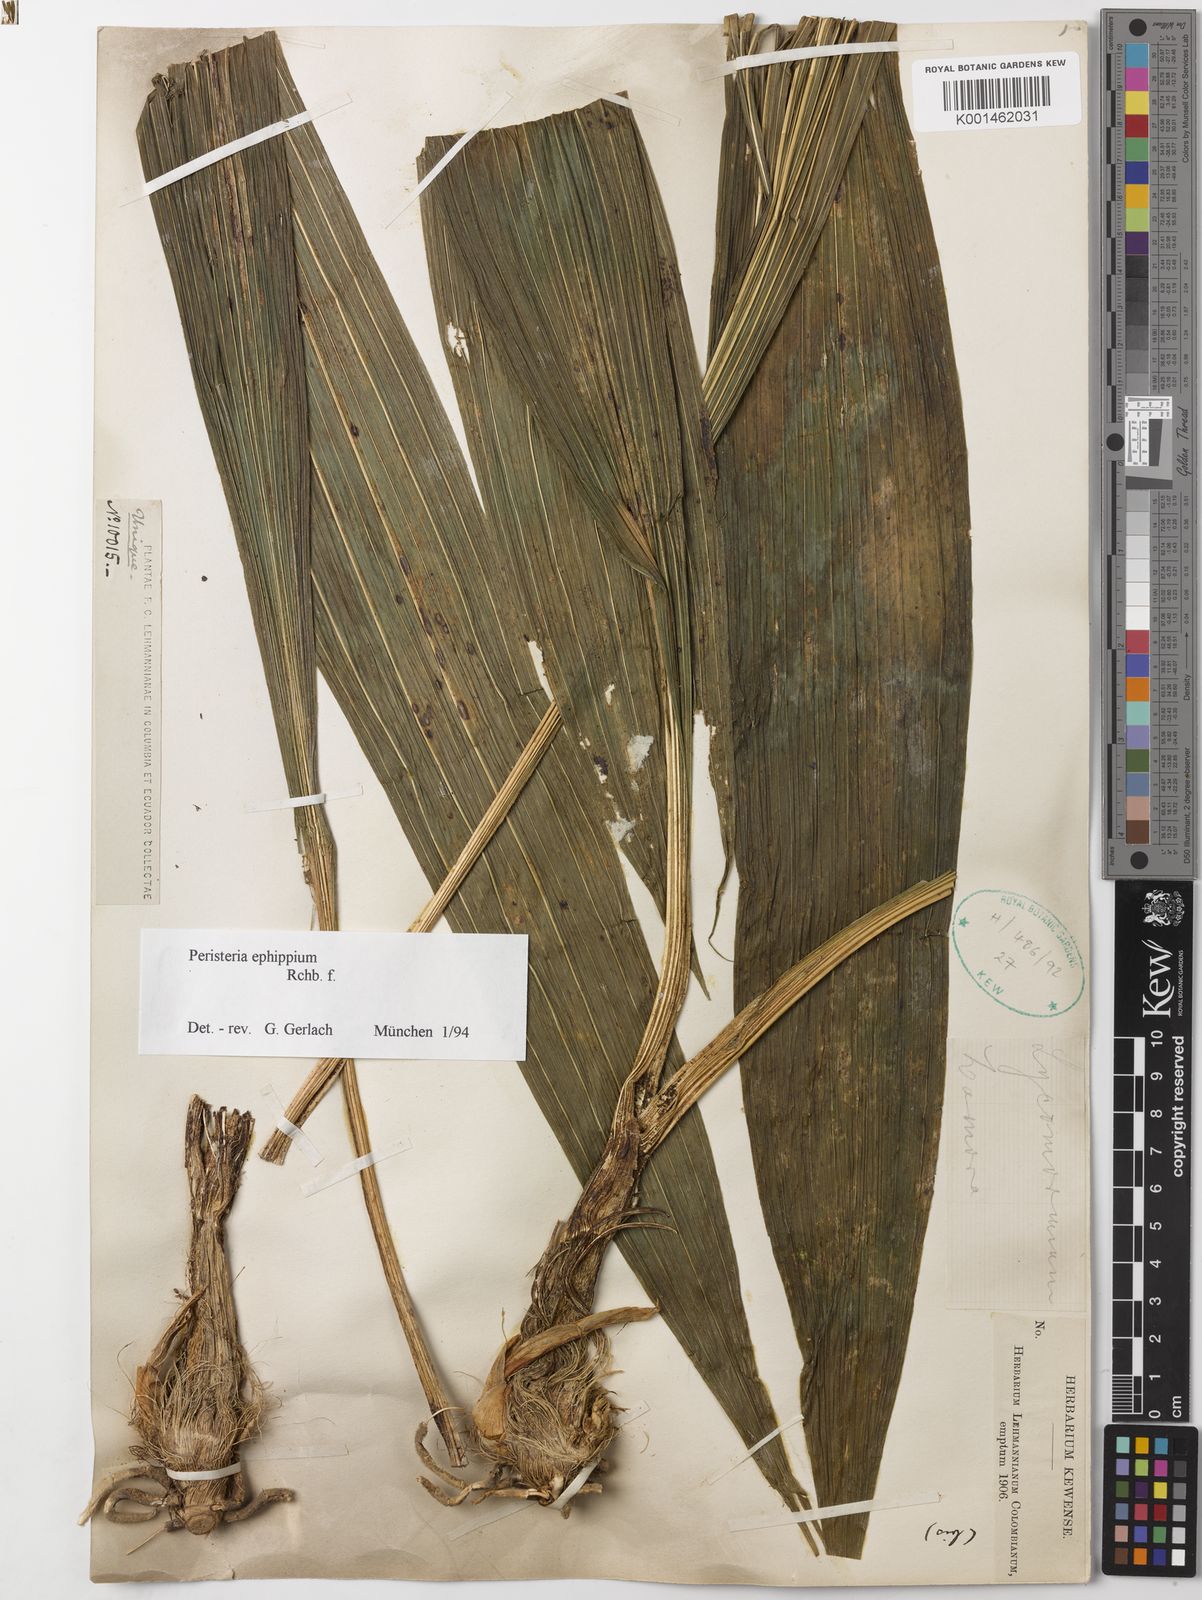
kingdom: Plantae
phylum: Tracheophyta
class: Liliopsida
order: Asparagales
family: Orchidaceae
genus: Peristeria
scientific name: Peristeria ephippium
